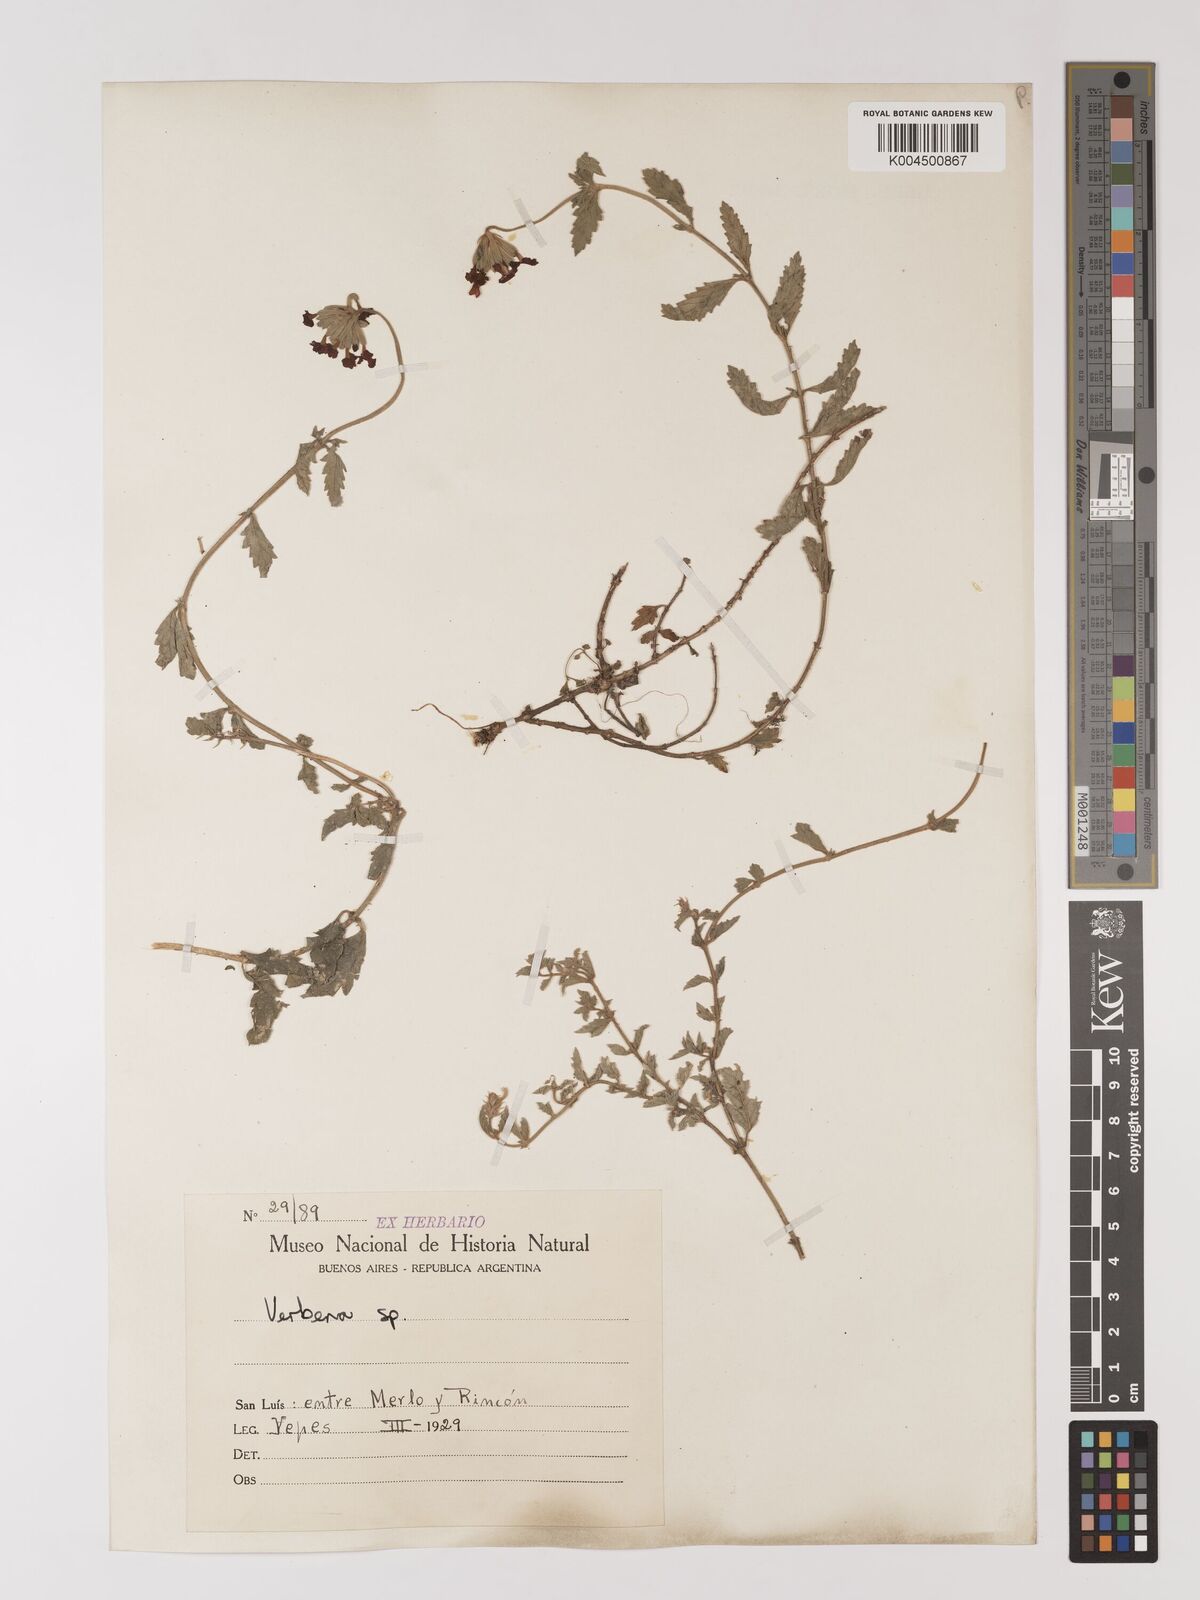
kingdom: Plantae
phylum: Tracheophyta
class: Magnoliopsida
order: Lamiales
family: Verbenaceae
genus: Verbena
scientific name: Verbena
